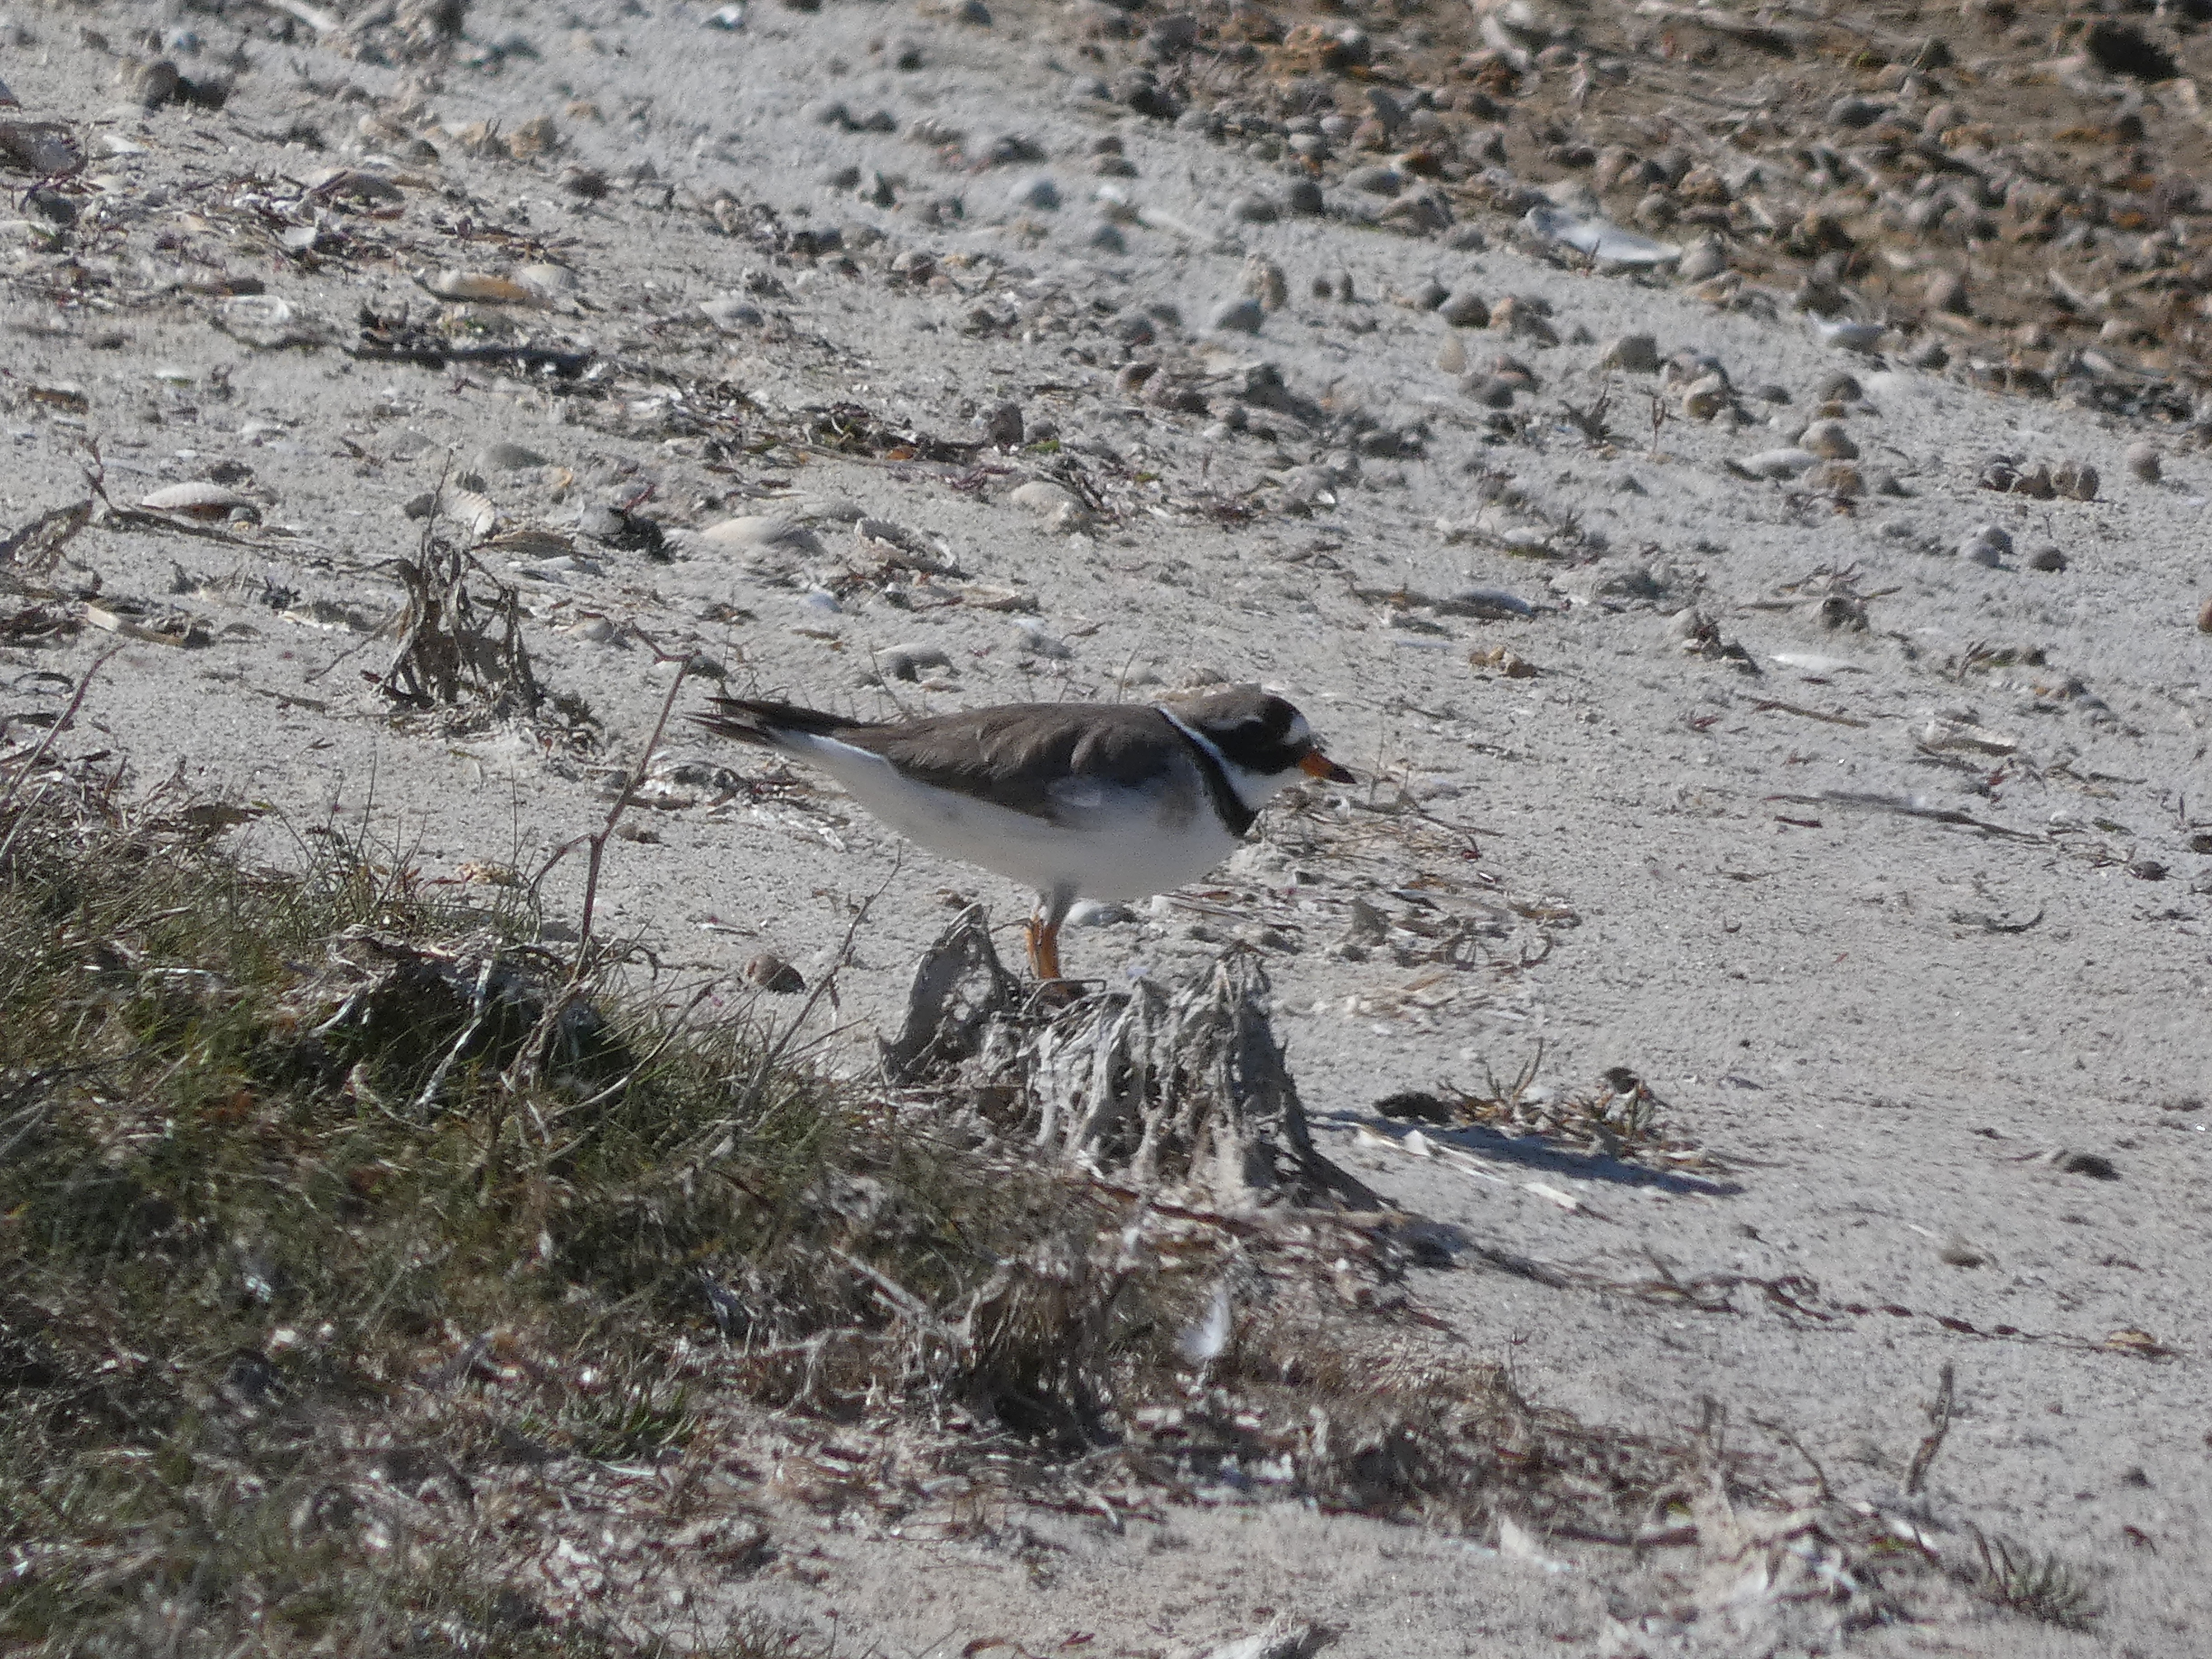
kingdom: Animalia
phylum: Chordata
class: Aves
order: Charadriiformes
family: Charadriidae
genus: Charadrius
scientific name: Charadrius hiaticula
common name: Stor præstekrave
